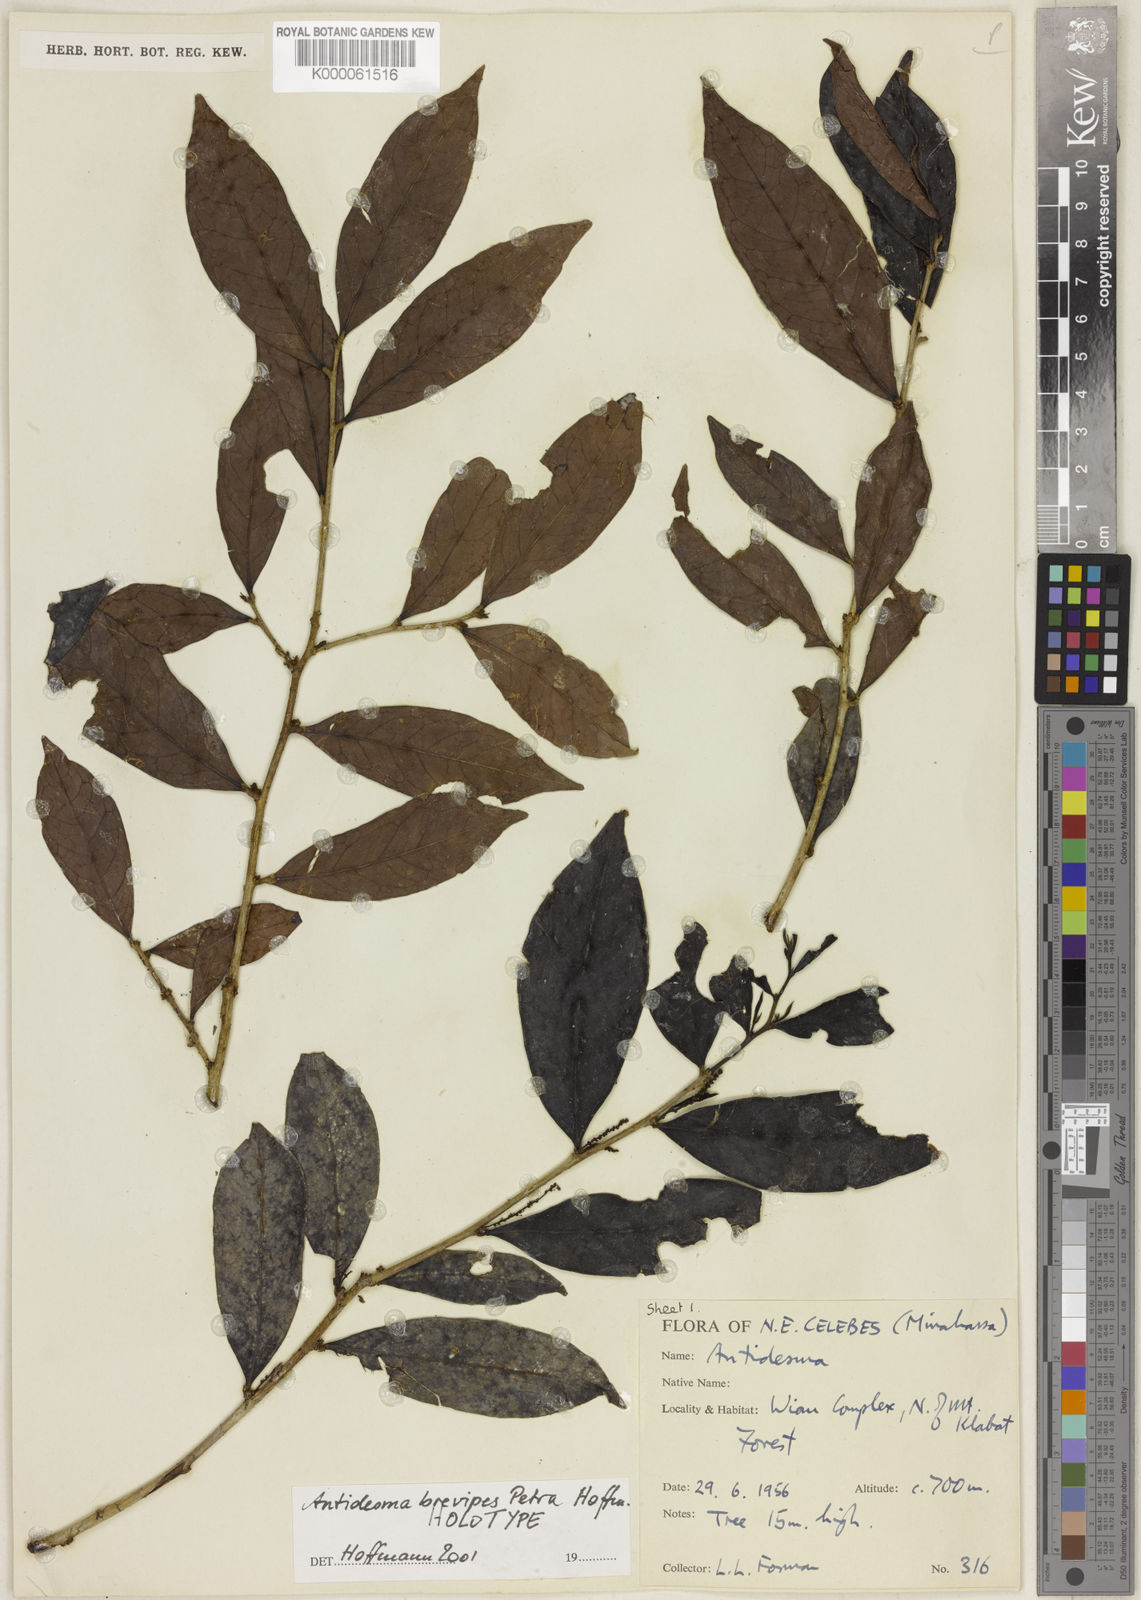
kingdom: Plantae
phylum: Tracheophyta
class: Magnoliopsida
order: Malpighiales
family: Phyllanthaceae
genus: Antidesma
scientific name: Antidesma brevipes
